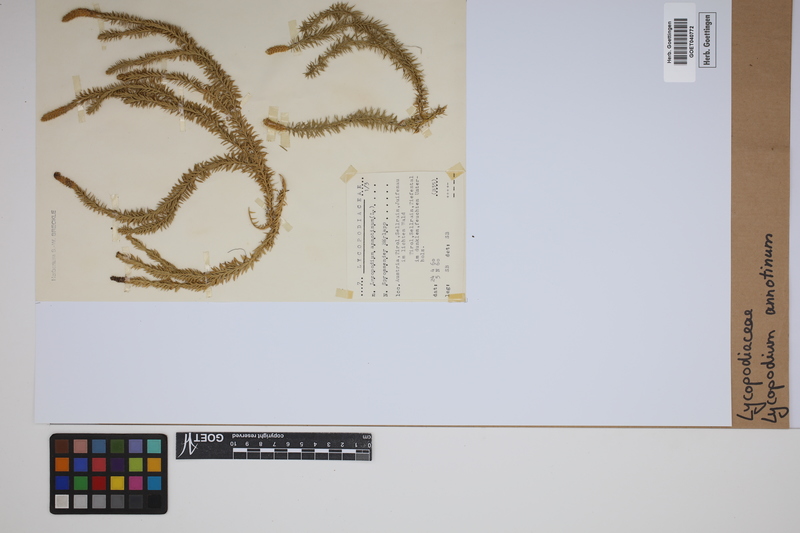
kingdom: Plantae
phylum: Tracheophyta
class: Lycopodiopsida
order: Lycopodiales
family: Lycopodiaceae
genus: Spinulum
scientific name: Spinulum annotinum
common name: Interrupted club-moss
